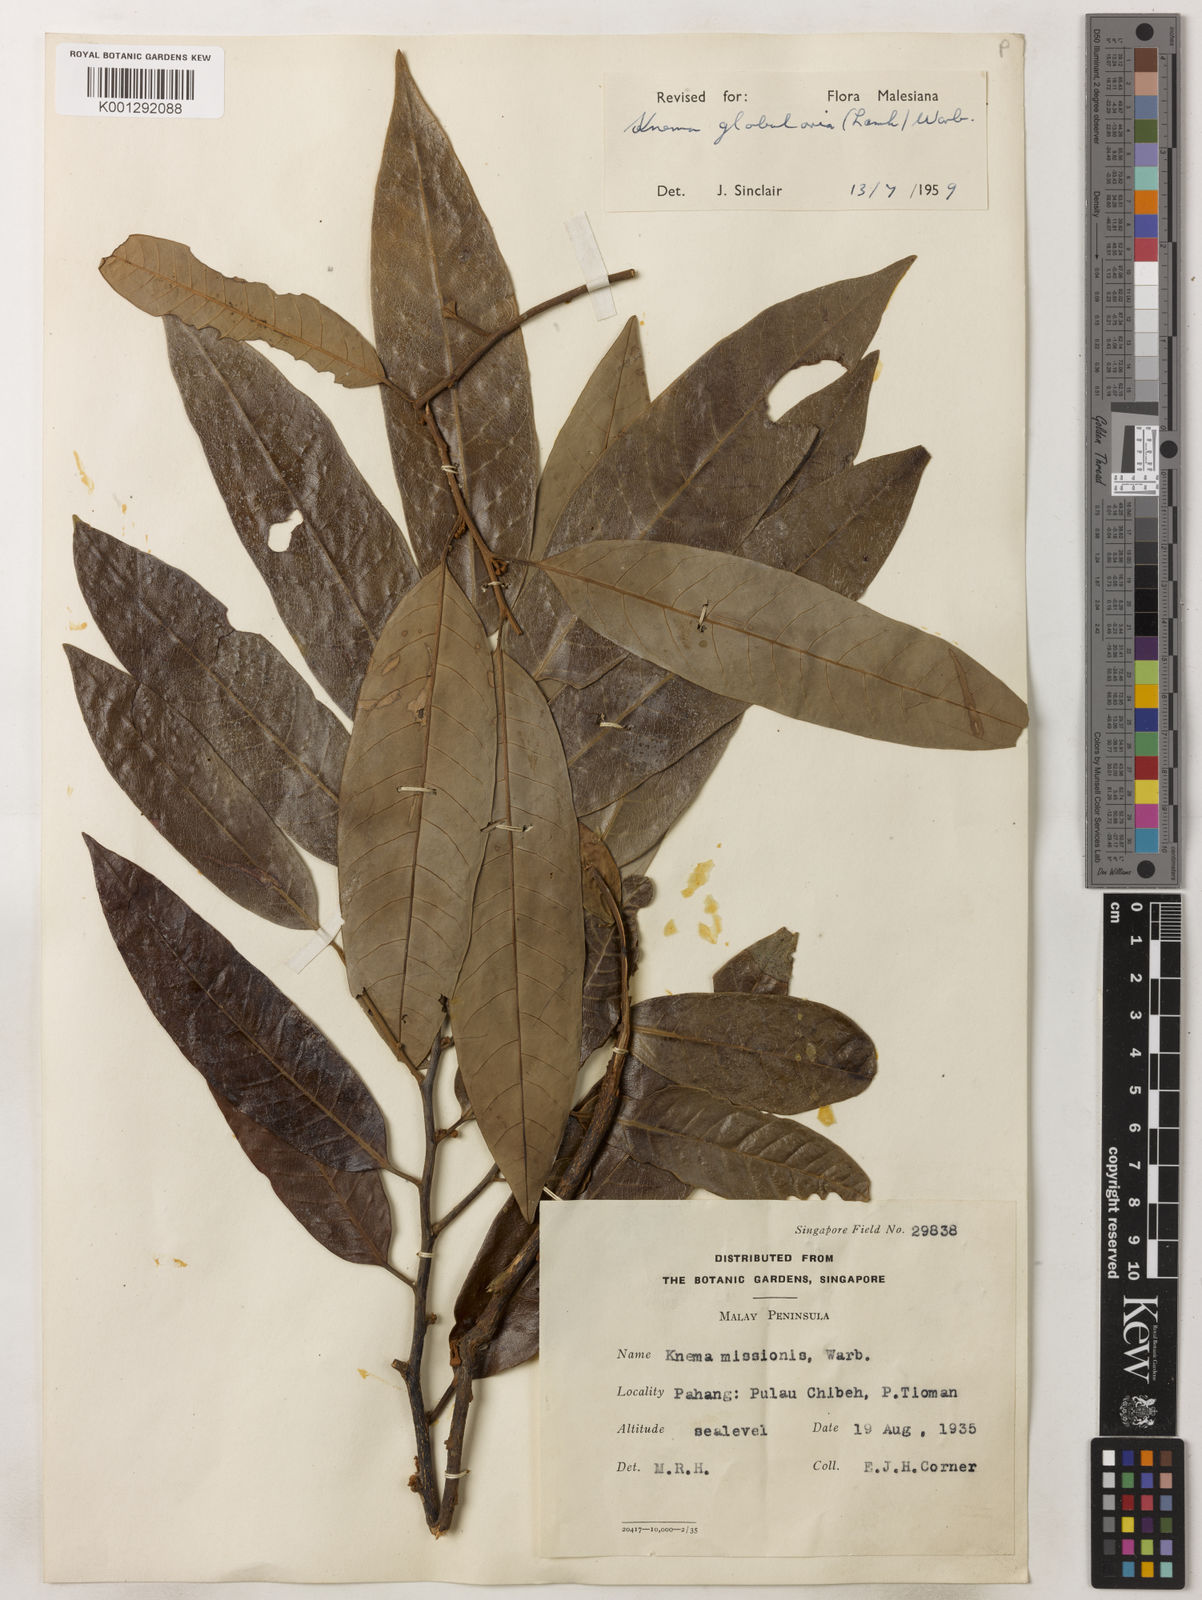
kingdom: Plantae
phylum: Tracheophyta
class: Magnoliopsida
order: Magnoliales
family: Myristicaceae
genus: Knema
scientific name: Knema globularia
